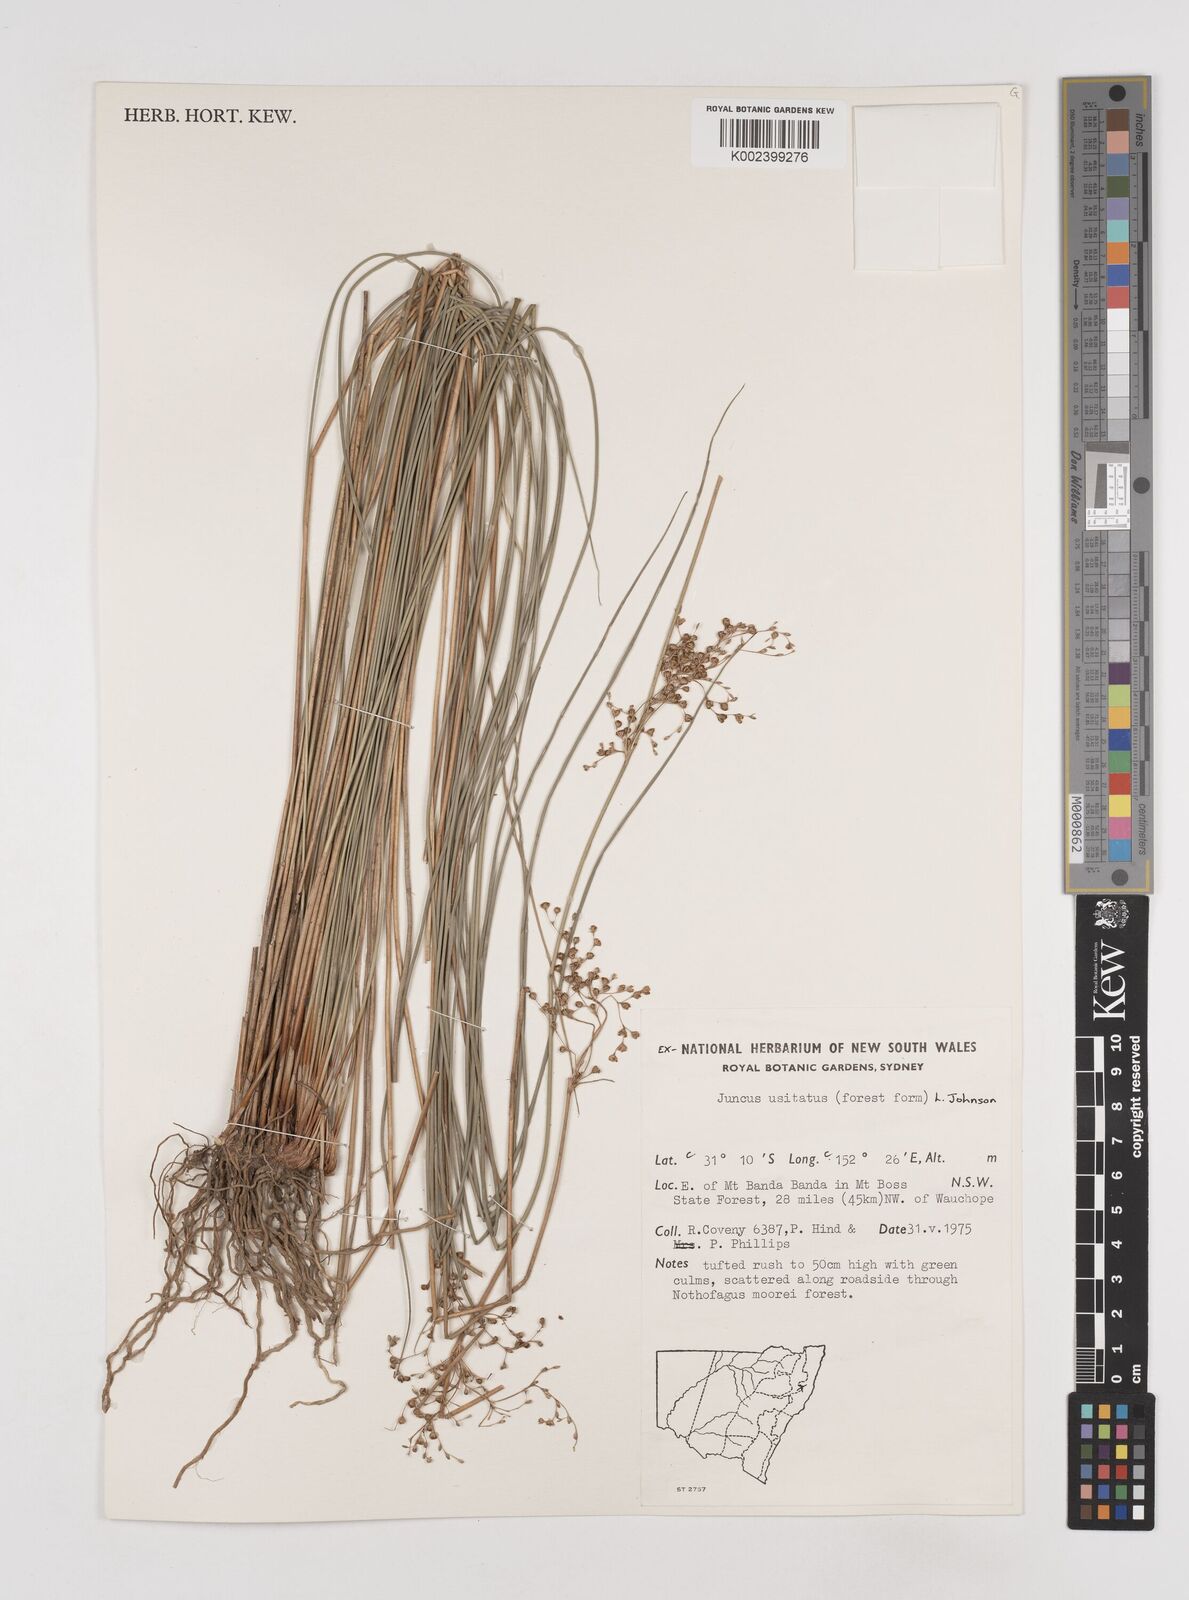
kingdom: Plantae
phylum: Tracheophyta
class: Liliopsida
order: Poales
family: Juncaceae
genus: Juncus
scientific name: Juncus usitatus
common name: Rush
